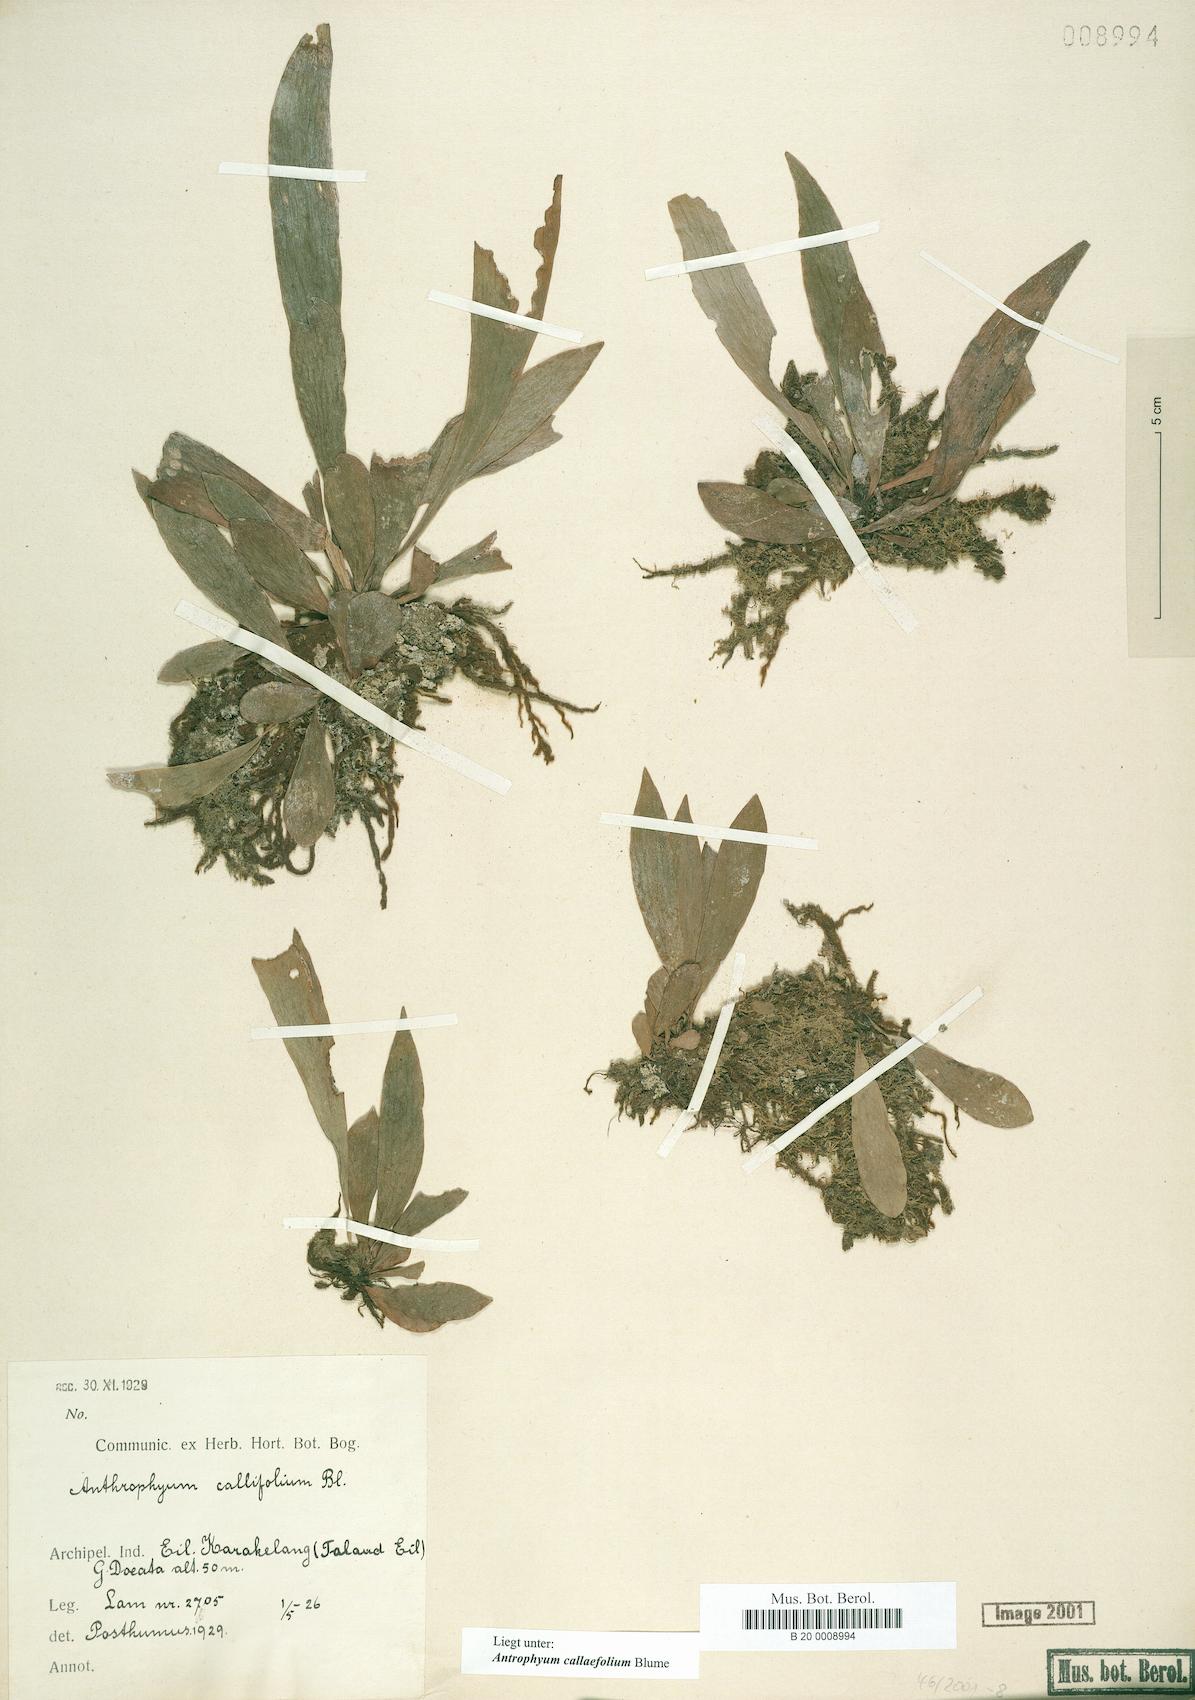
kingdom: Plantae
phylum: Tracheophyta
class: Polypodiopsida
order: Polypodiales
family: Pteridaceae
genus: Antrophyum
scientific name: Antrophyum callifolium
